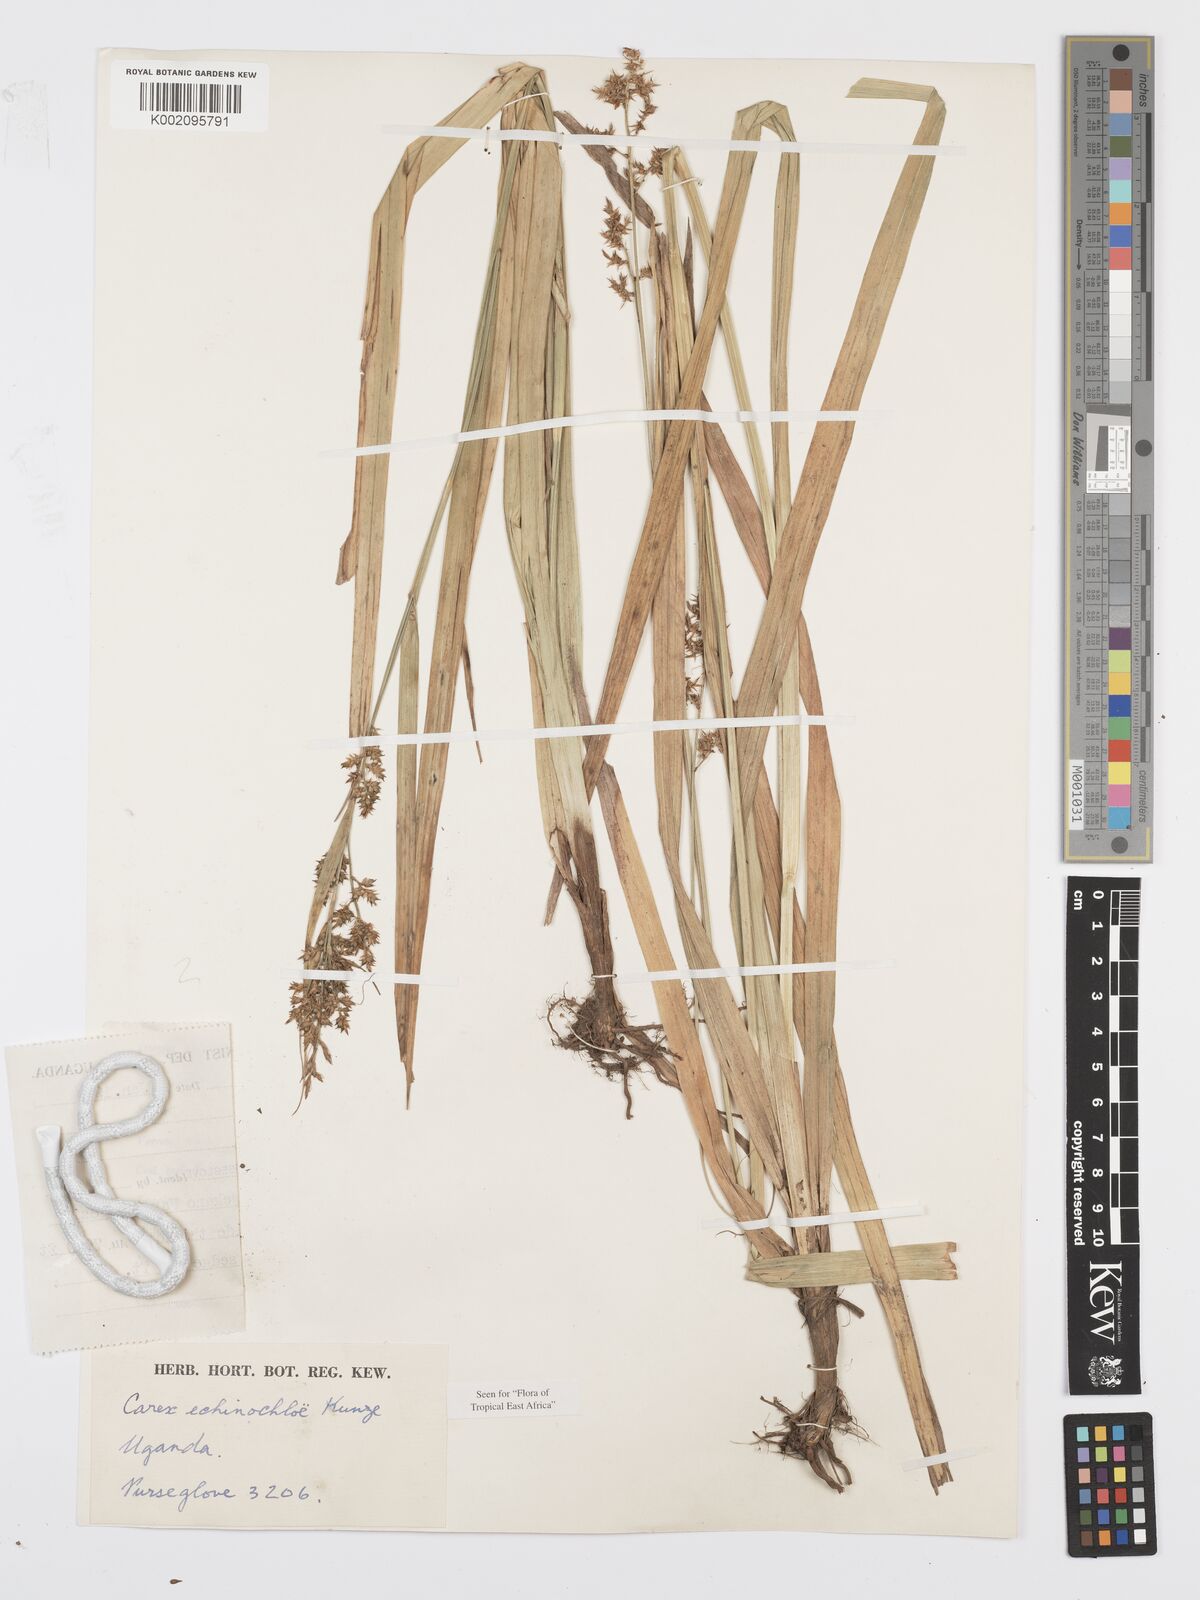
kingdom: Plantae
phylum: Tracheophyta
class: Liliopsida
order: Poales
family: Cyperaceae
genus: Carex
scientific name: Carex echinochloe
